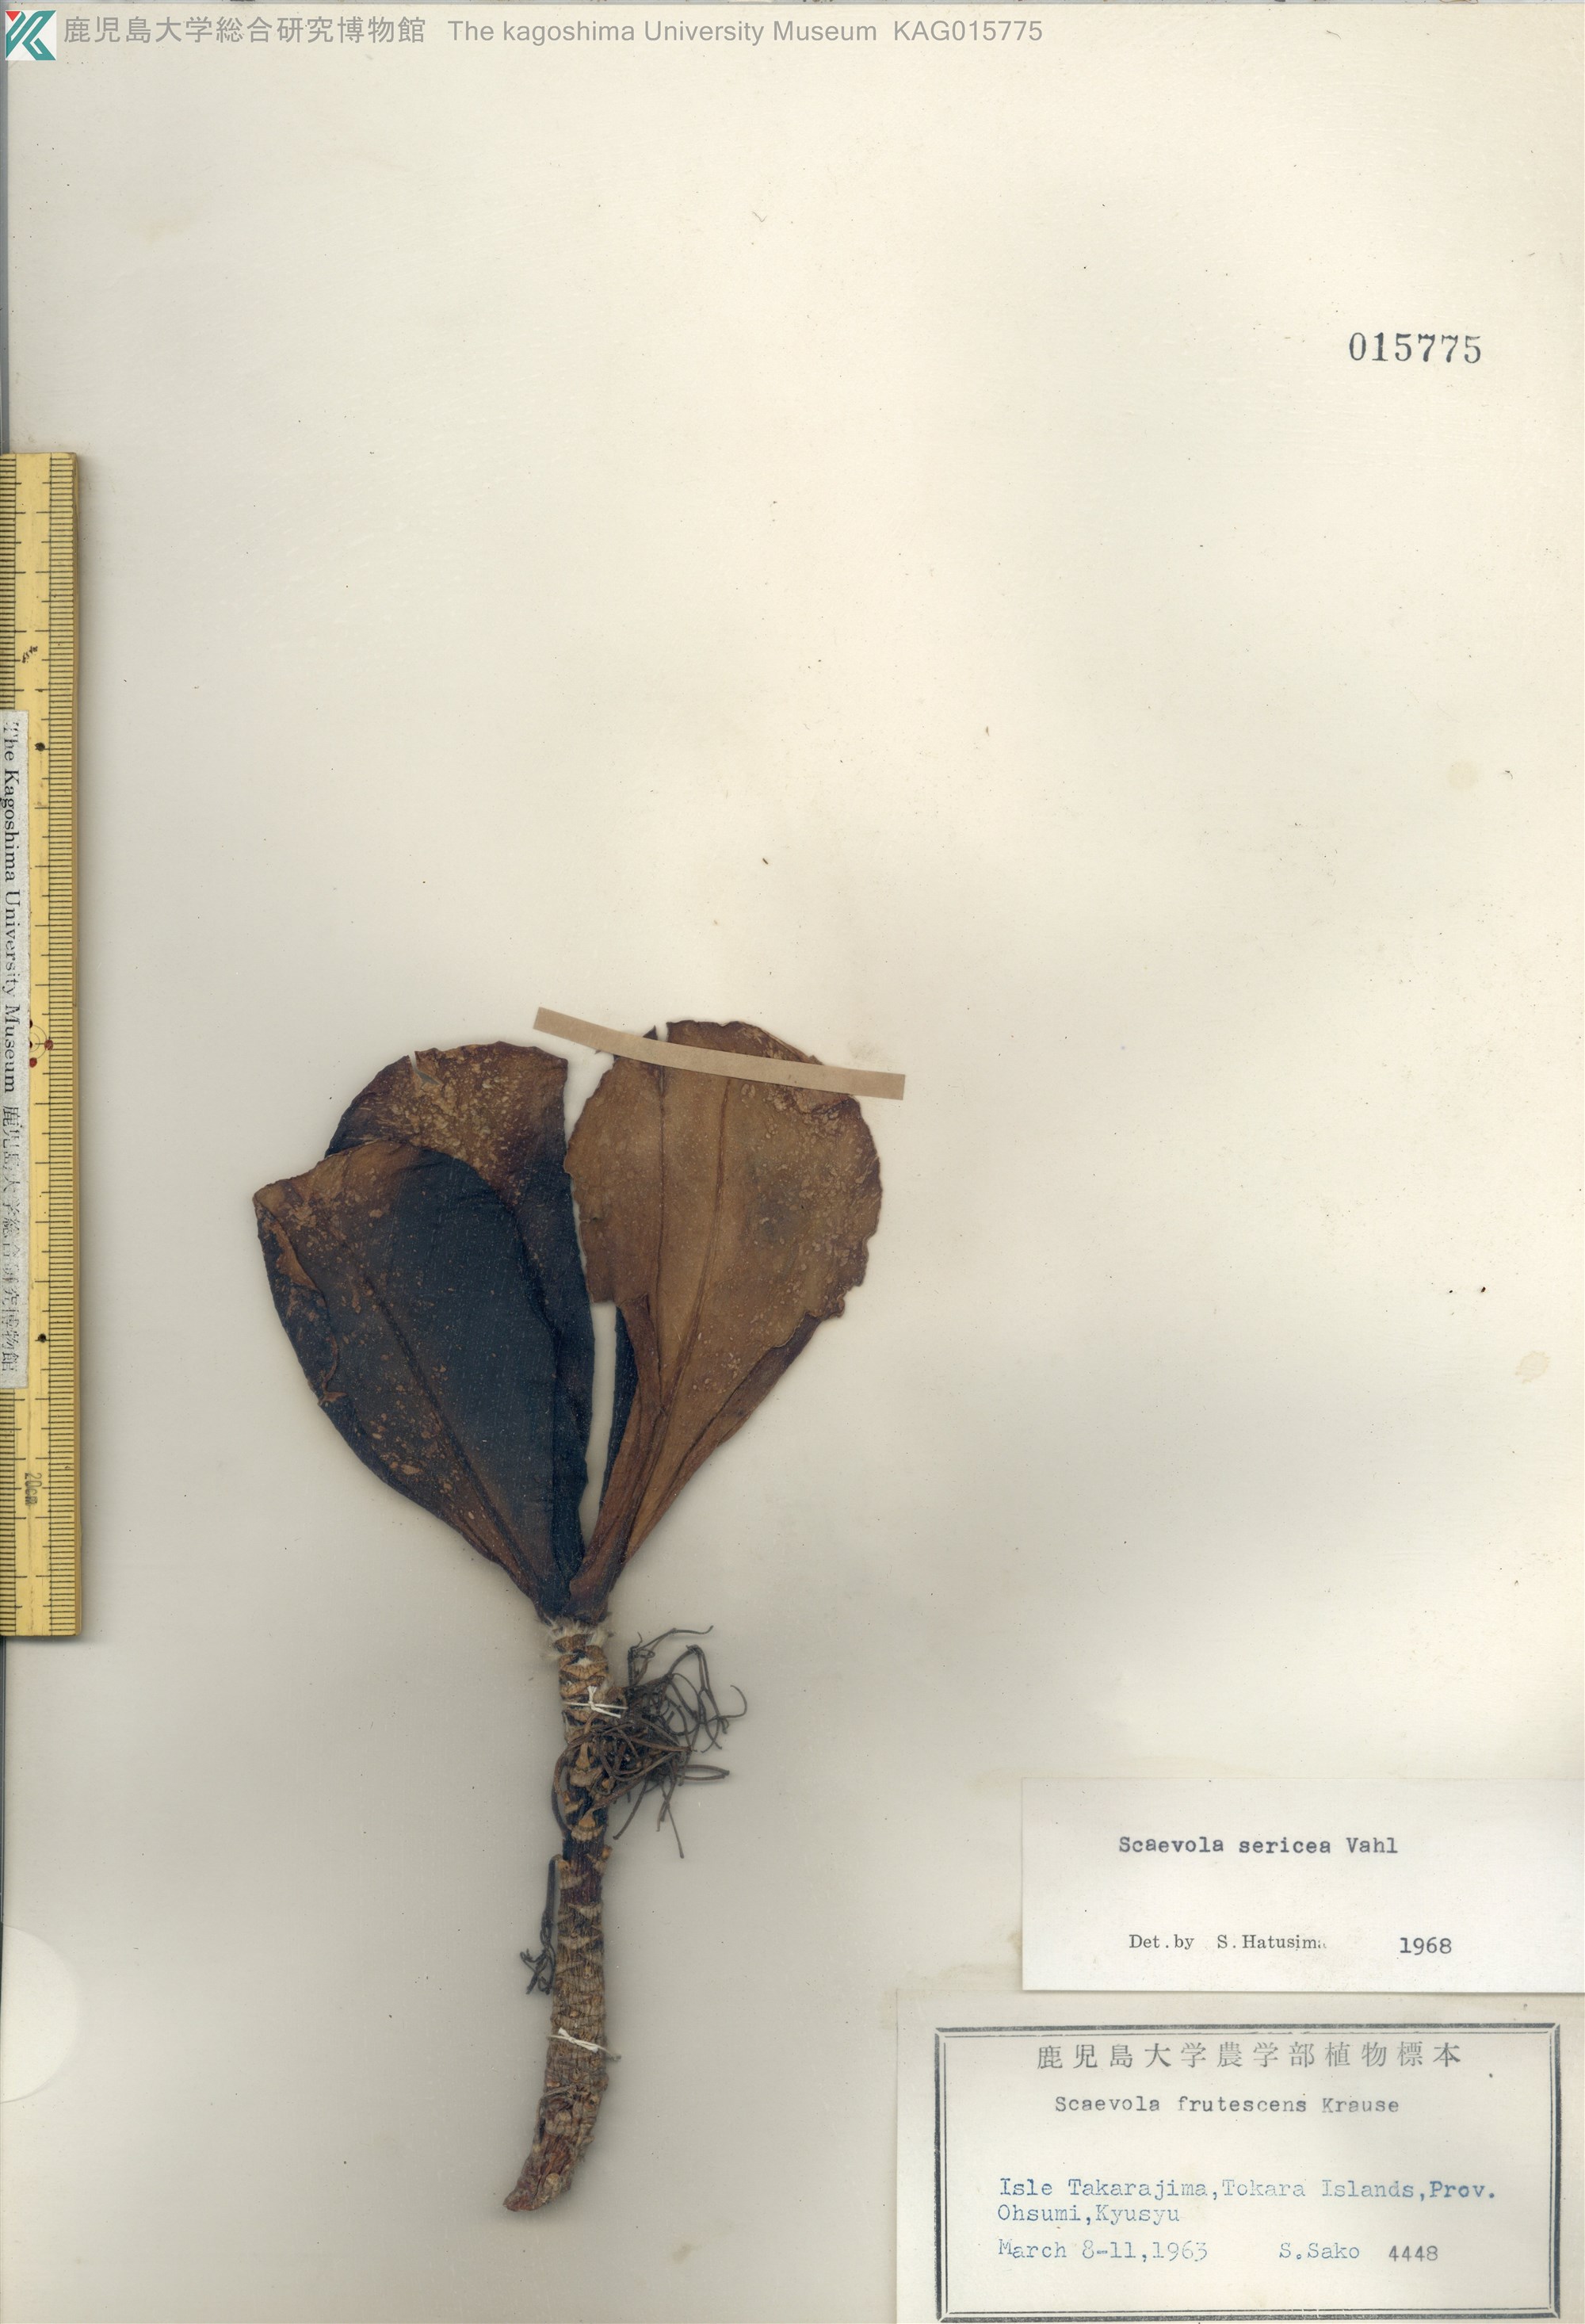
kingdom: Plantae
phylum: Tracheophyta
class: Magnoliopsida
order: Asterales
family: Goodeniaceae
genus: Scaevola
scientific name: Scaevola taccada
